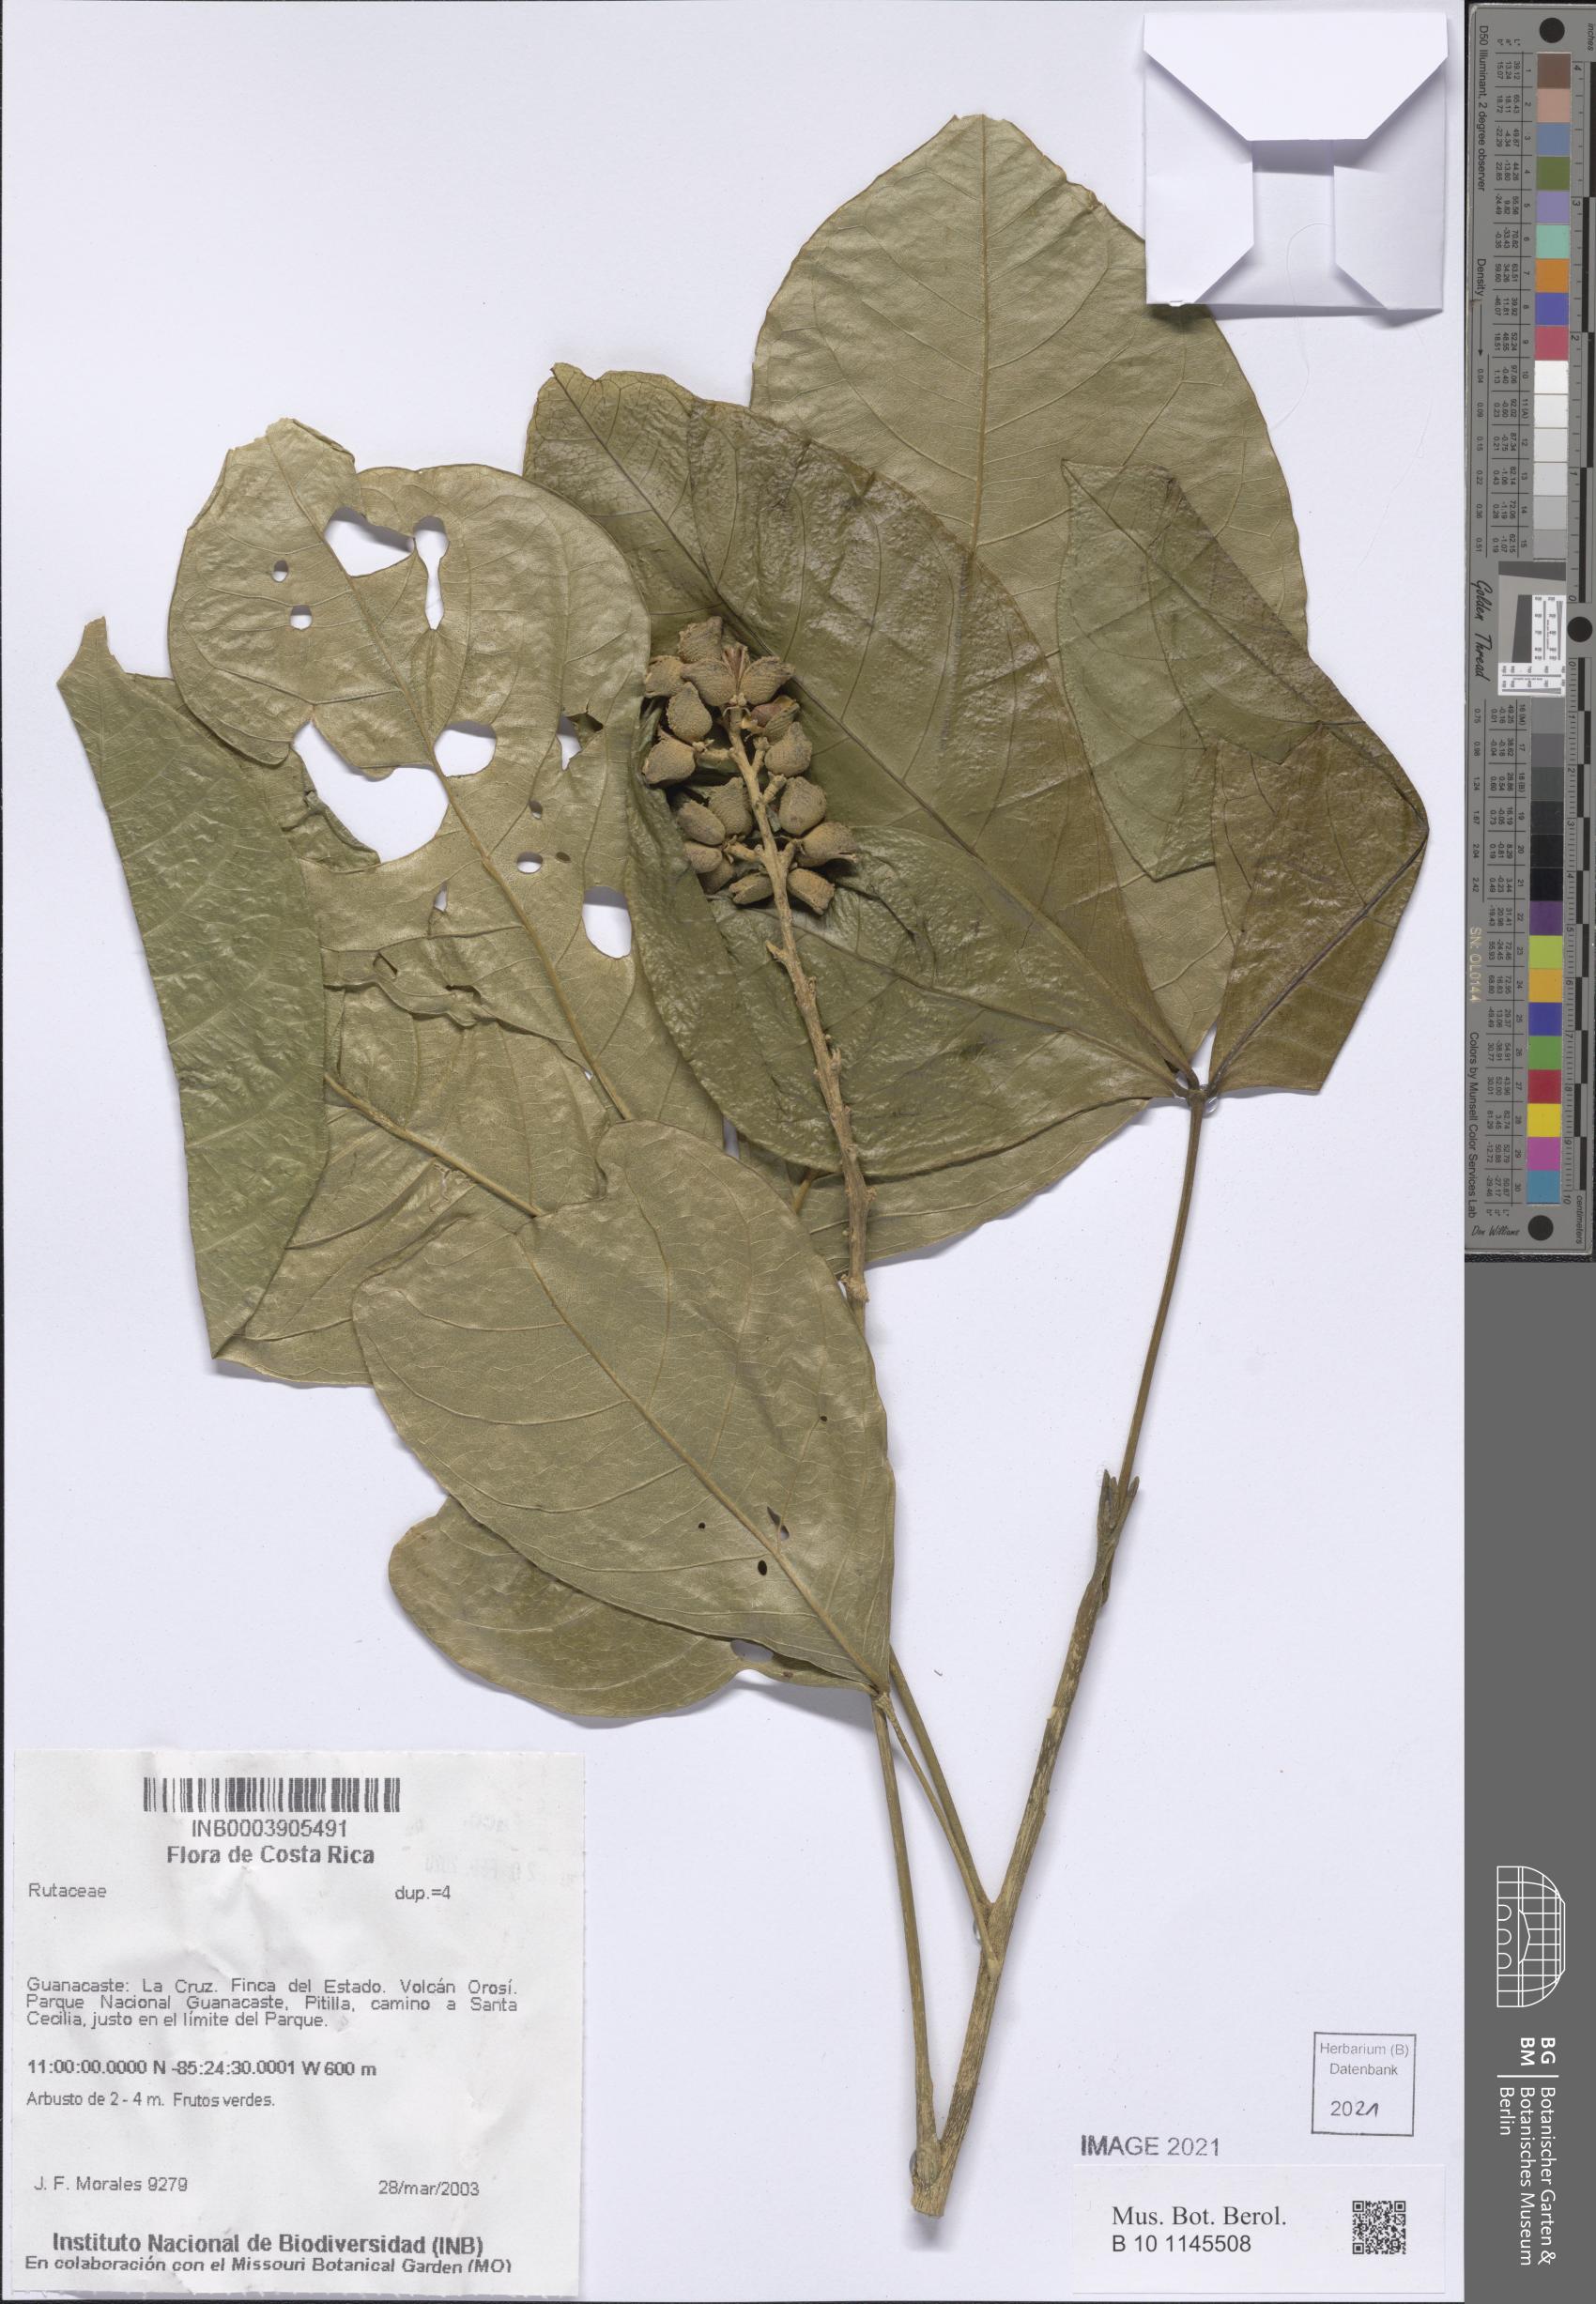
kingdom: Plantae
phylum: Tracheophyta
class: Magnoliopsida
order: Sapindales
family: Rutaceae
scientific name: Rutaceae
